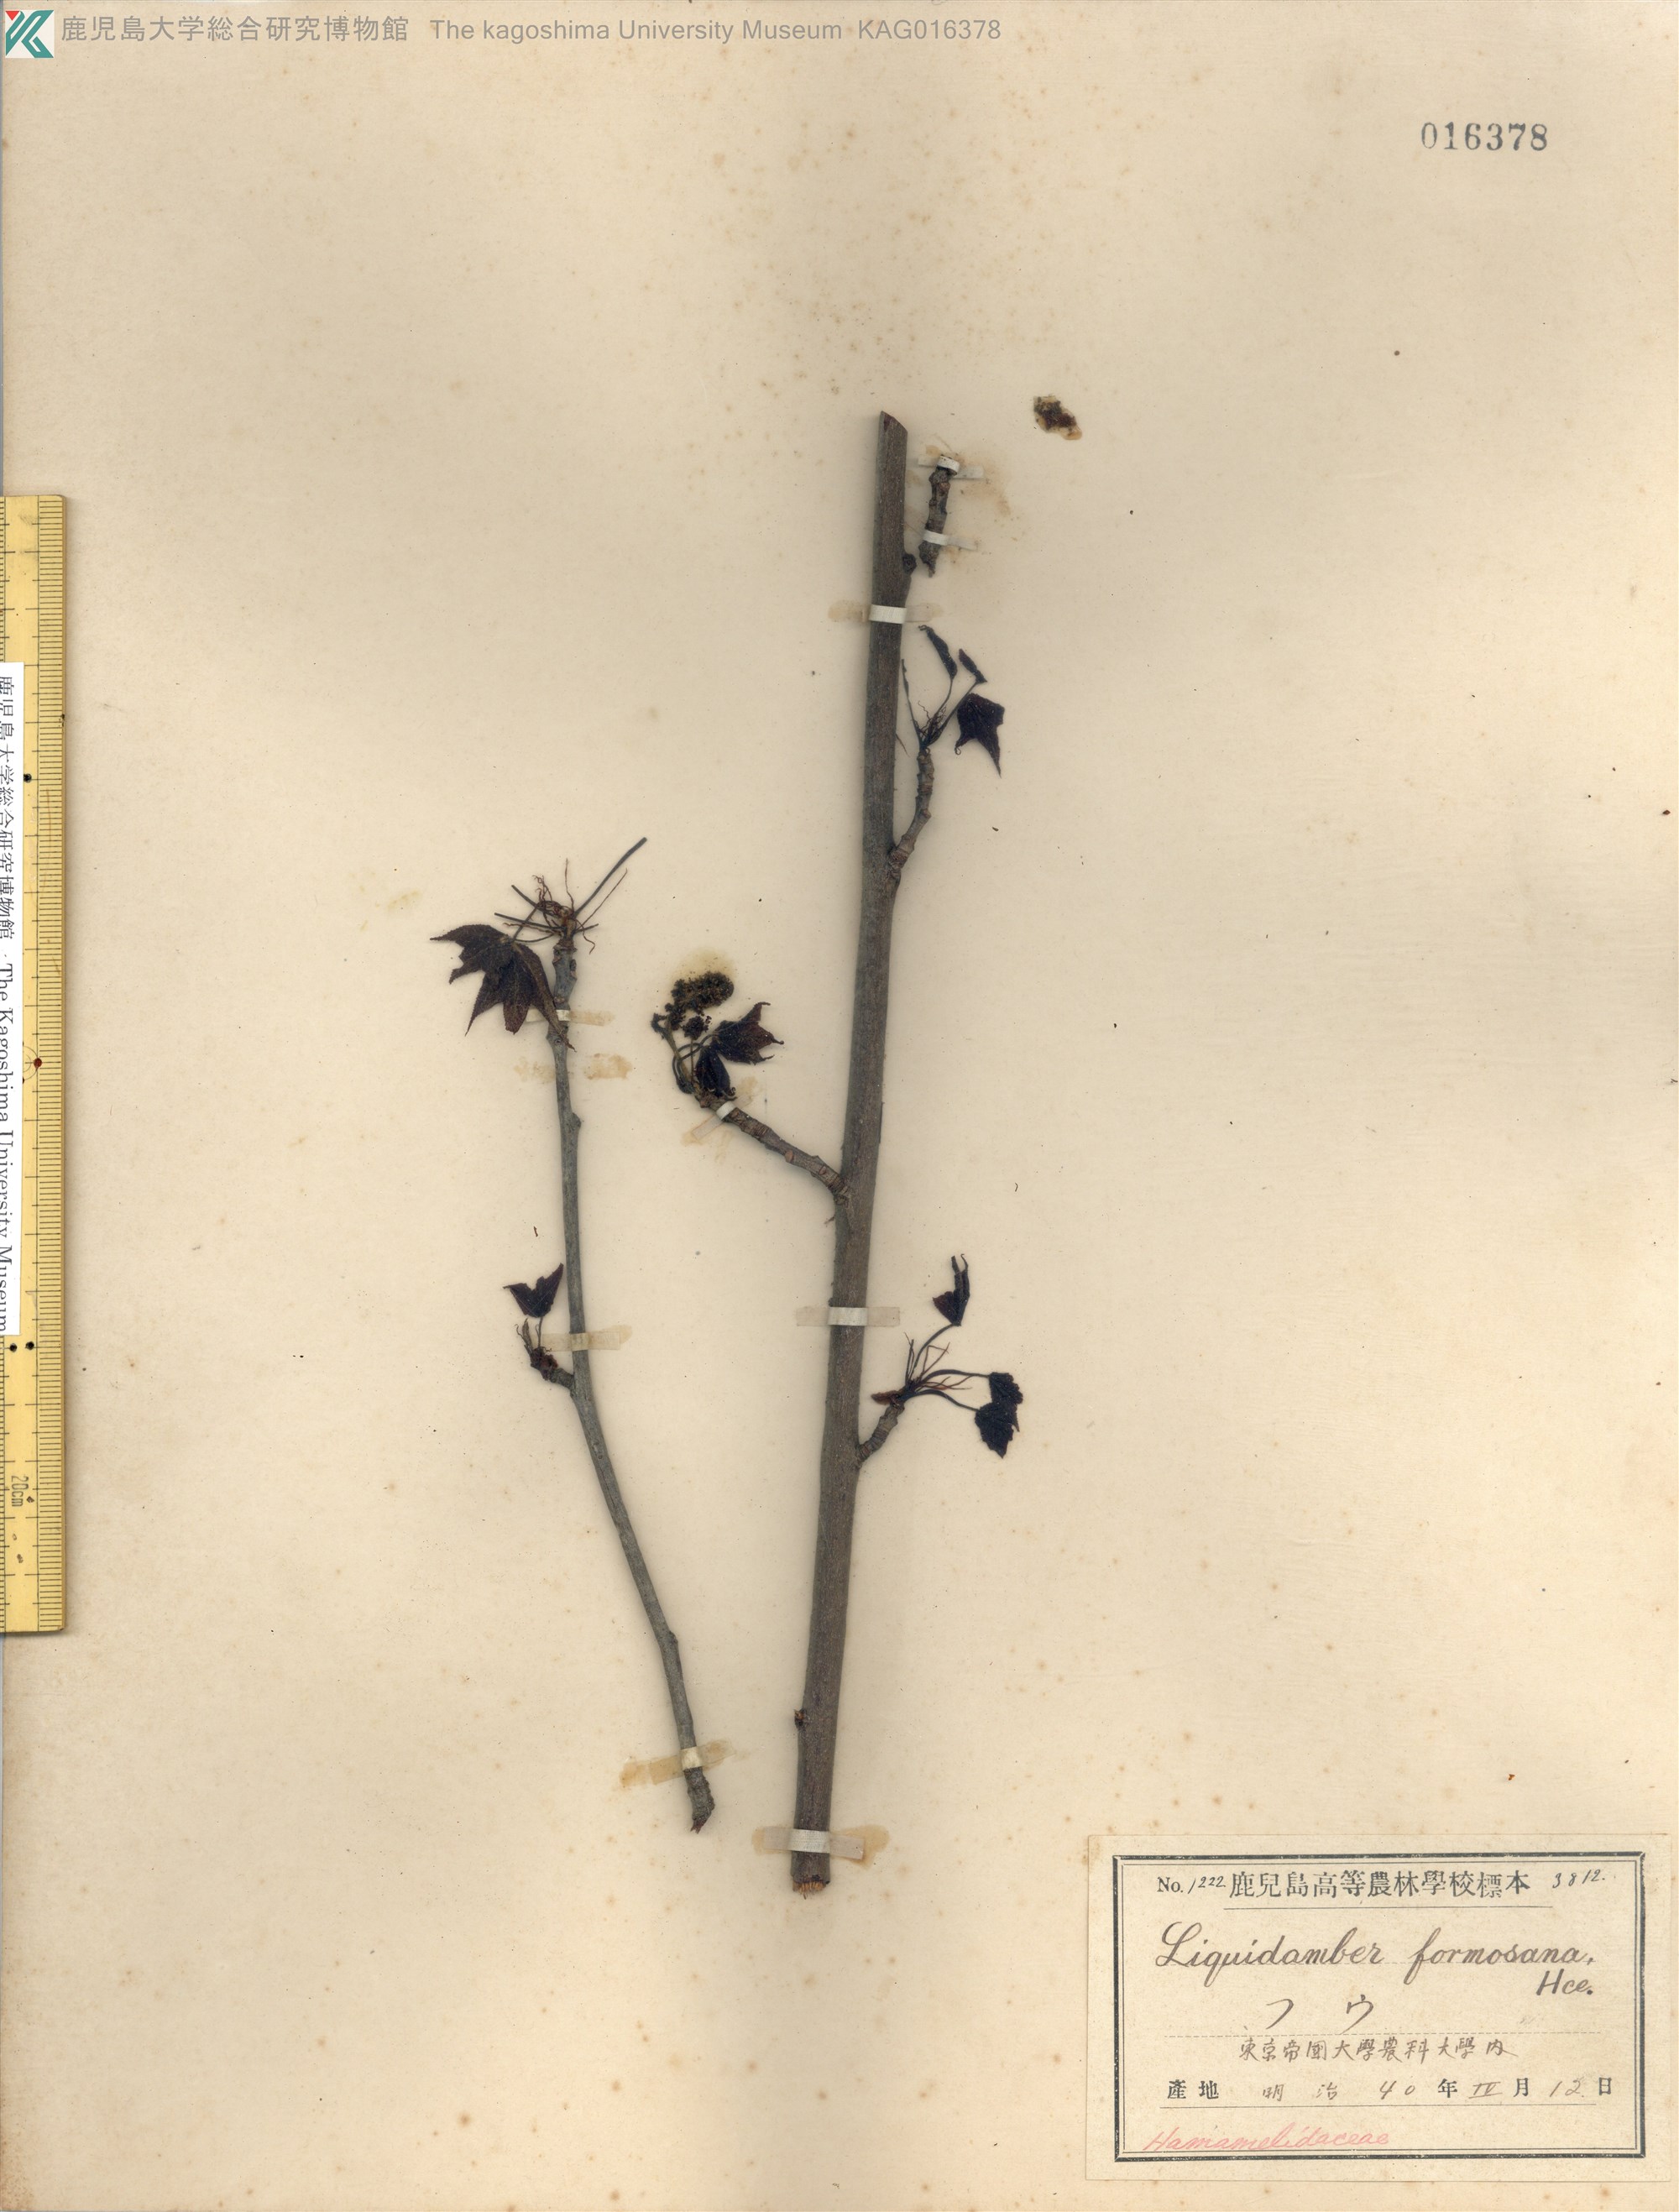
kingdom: Plantae
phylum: Tracheophyta
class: Magnoliopsida
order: Saxifragales
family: Altingiaceae
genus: Liquidambar
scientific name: Liquidambar formosana
